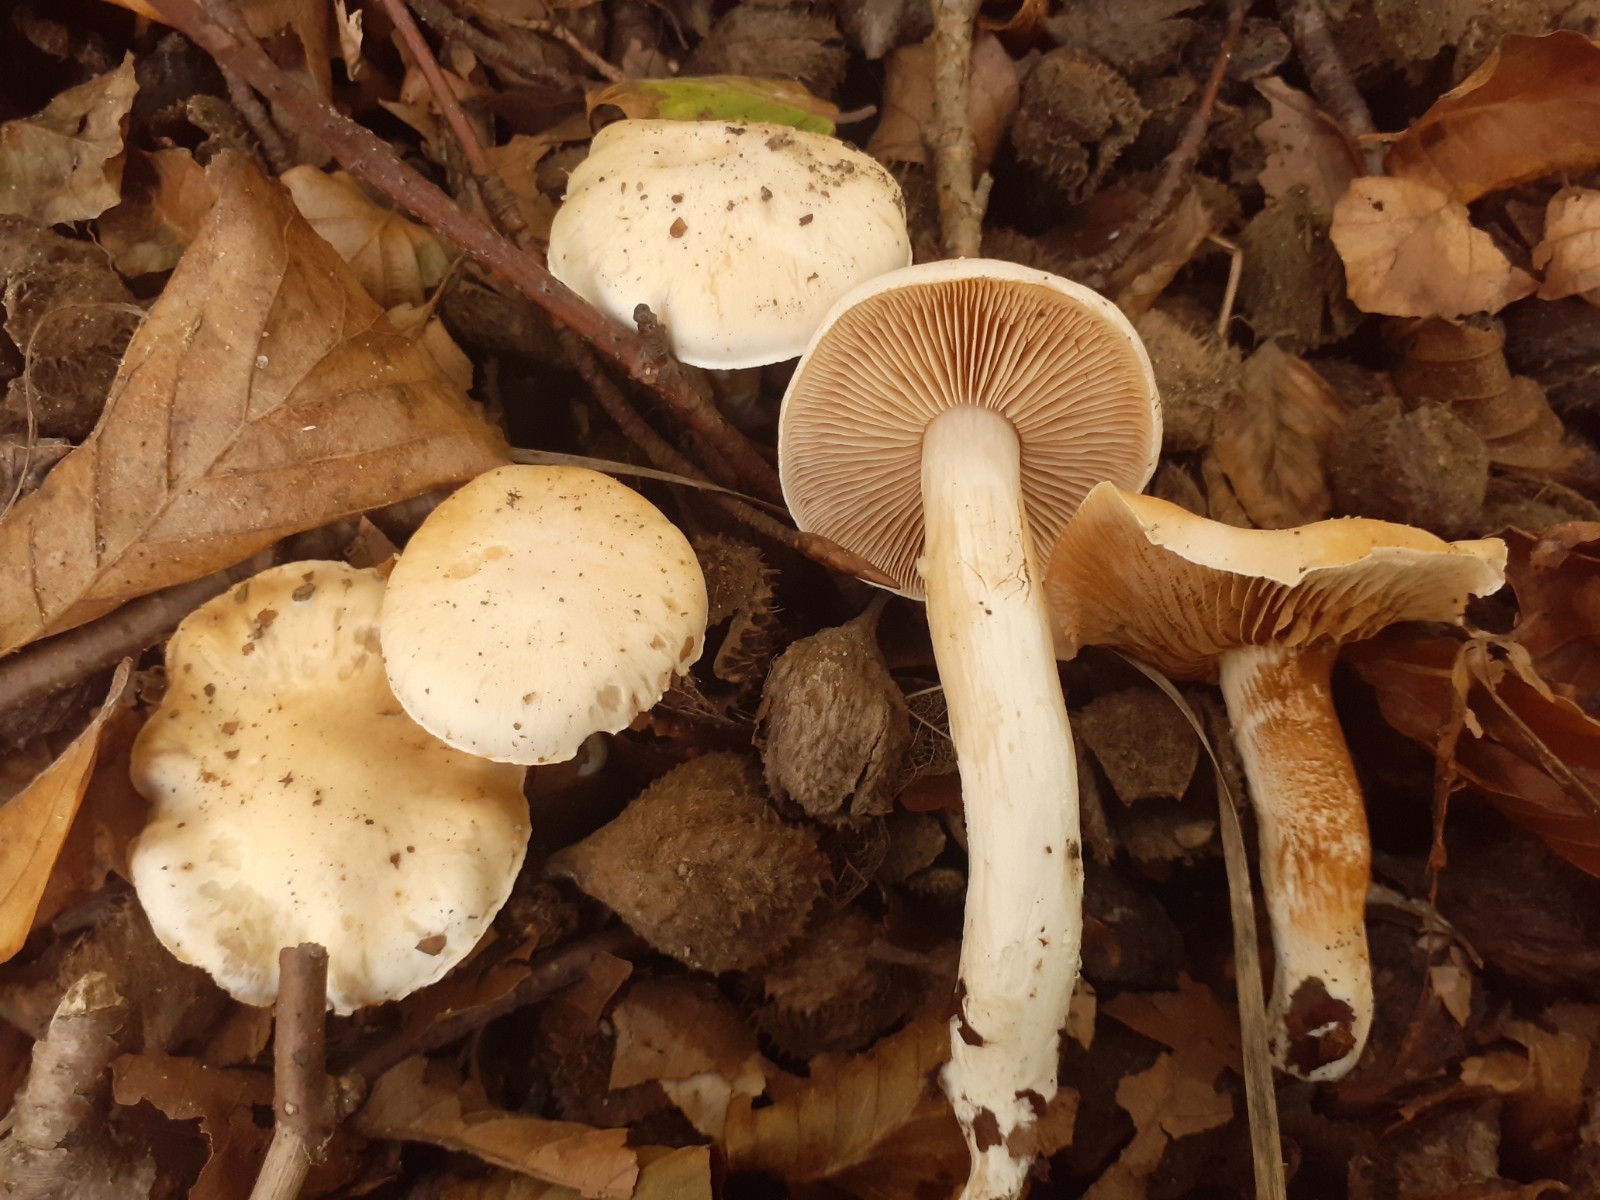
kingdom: Fungi
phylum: Basidiomycota
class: Agaricomycetes
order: Agaricales
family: Cortinariaceae
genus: Thaxterogaster
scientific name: Thaxterogaster barbatus
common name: elfenbens-slørhat
